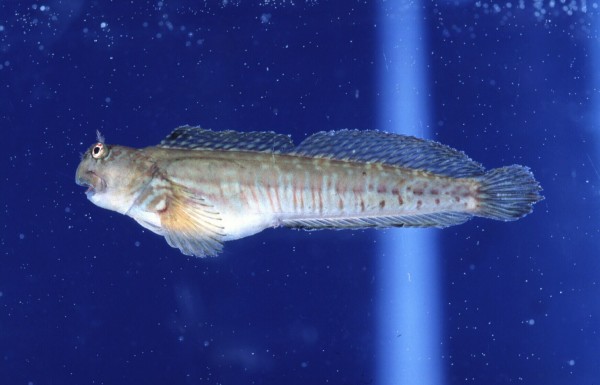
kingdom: Animalia
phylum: Chordata
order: Perciformes
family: Blenniidae
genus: Istiblennius
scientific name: Istiblennius dussumieri
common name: Dussumier's rockskipper
